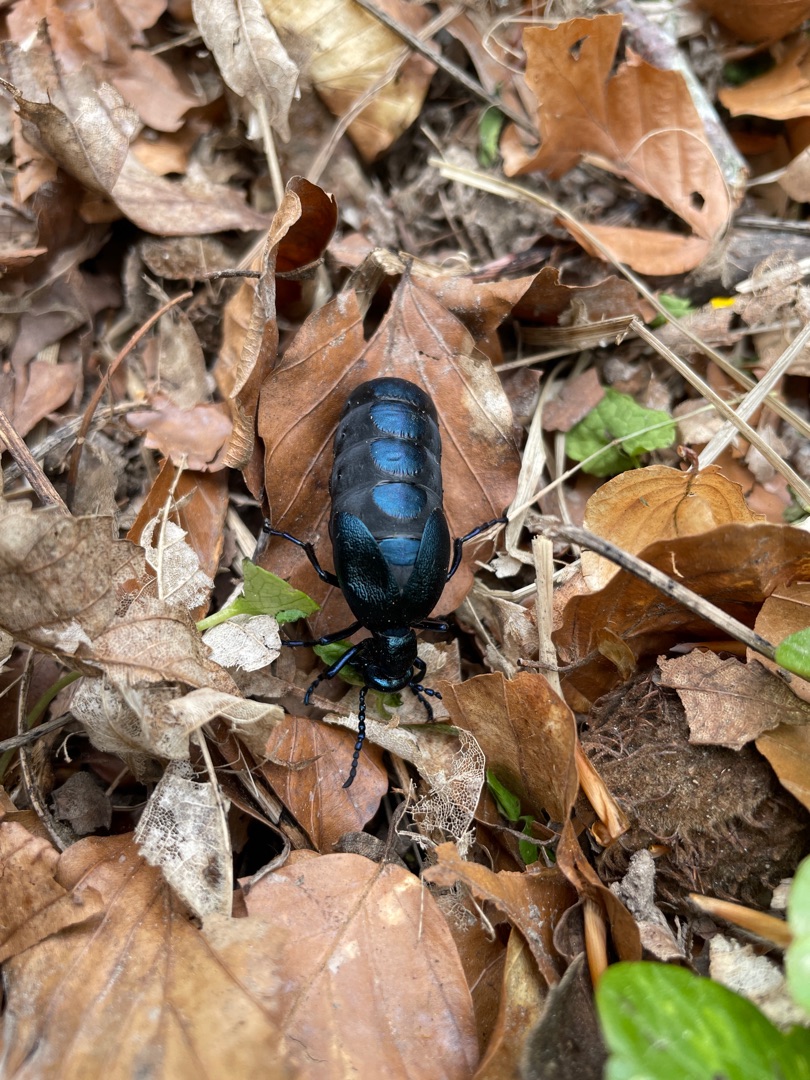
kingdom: Animalia
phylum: Arthropoda
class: Insecta
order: Coleoptera
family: Meloidae
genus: Meloe
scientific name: Meloe violaceus
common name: Blå oliebille
